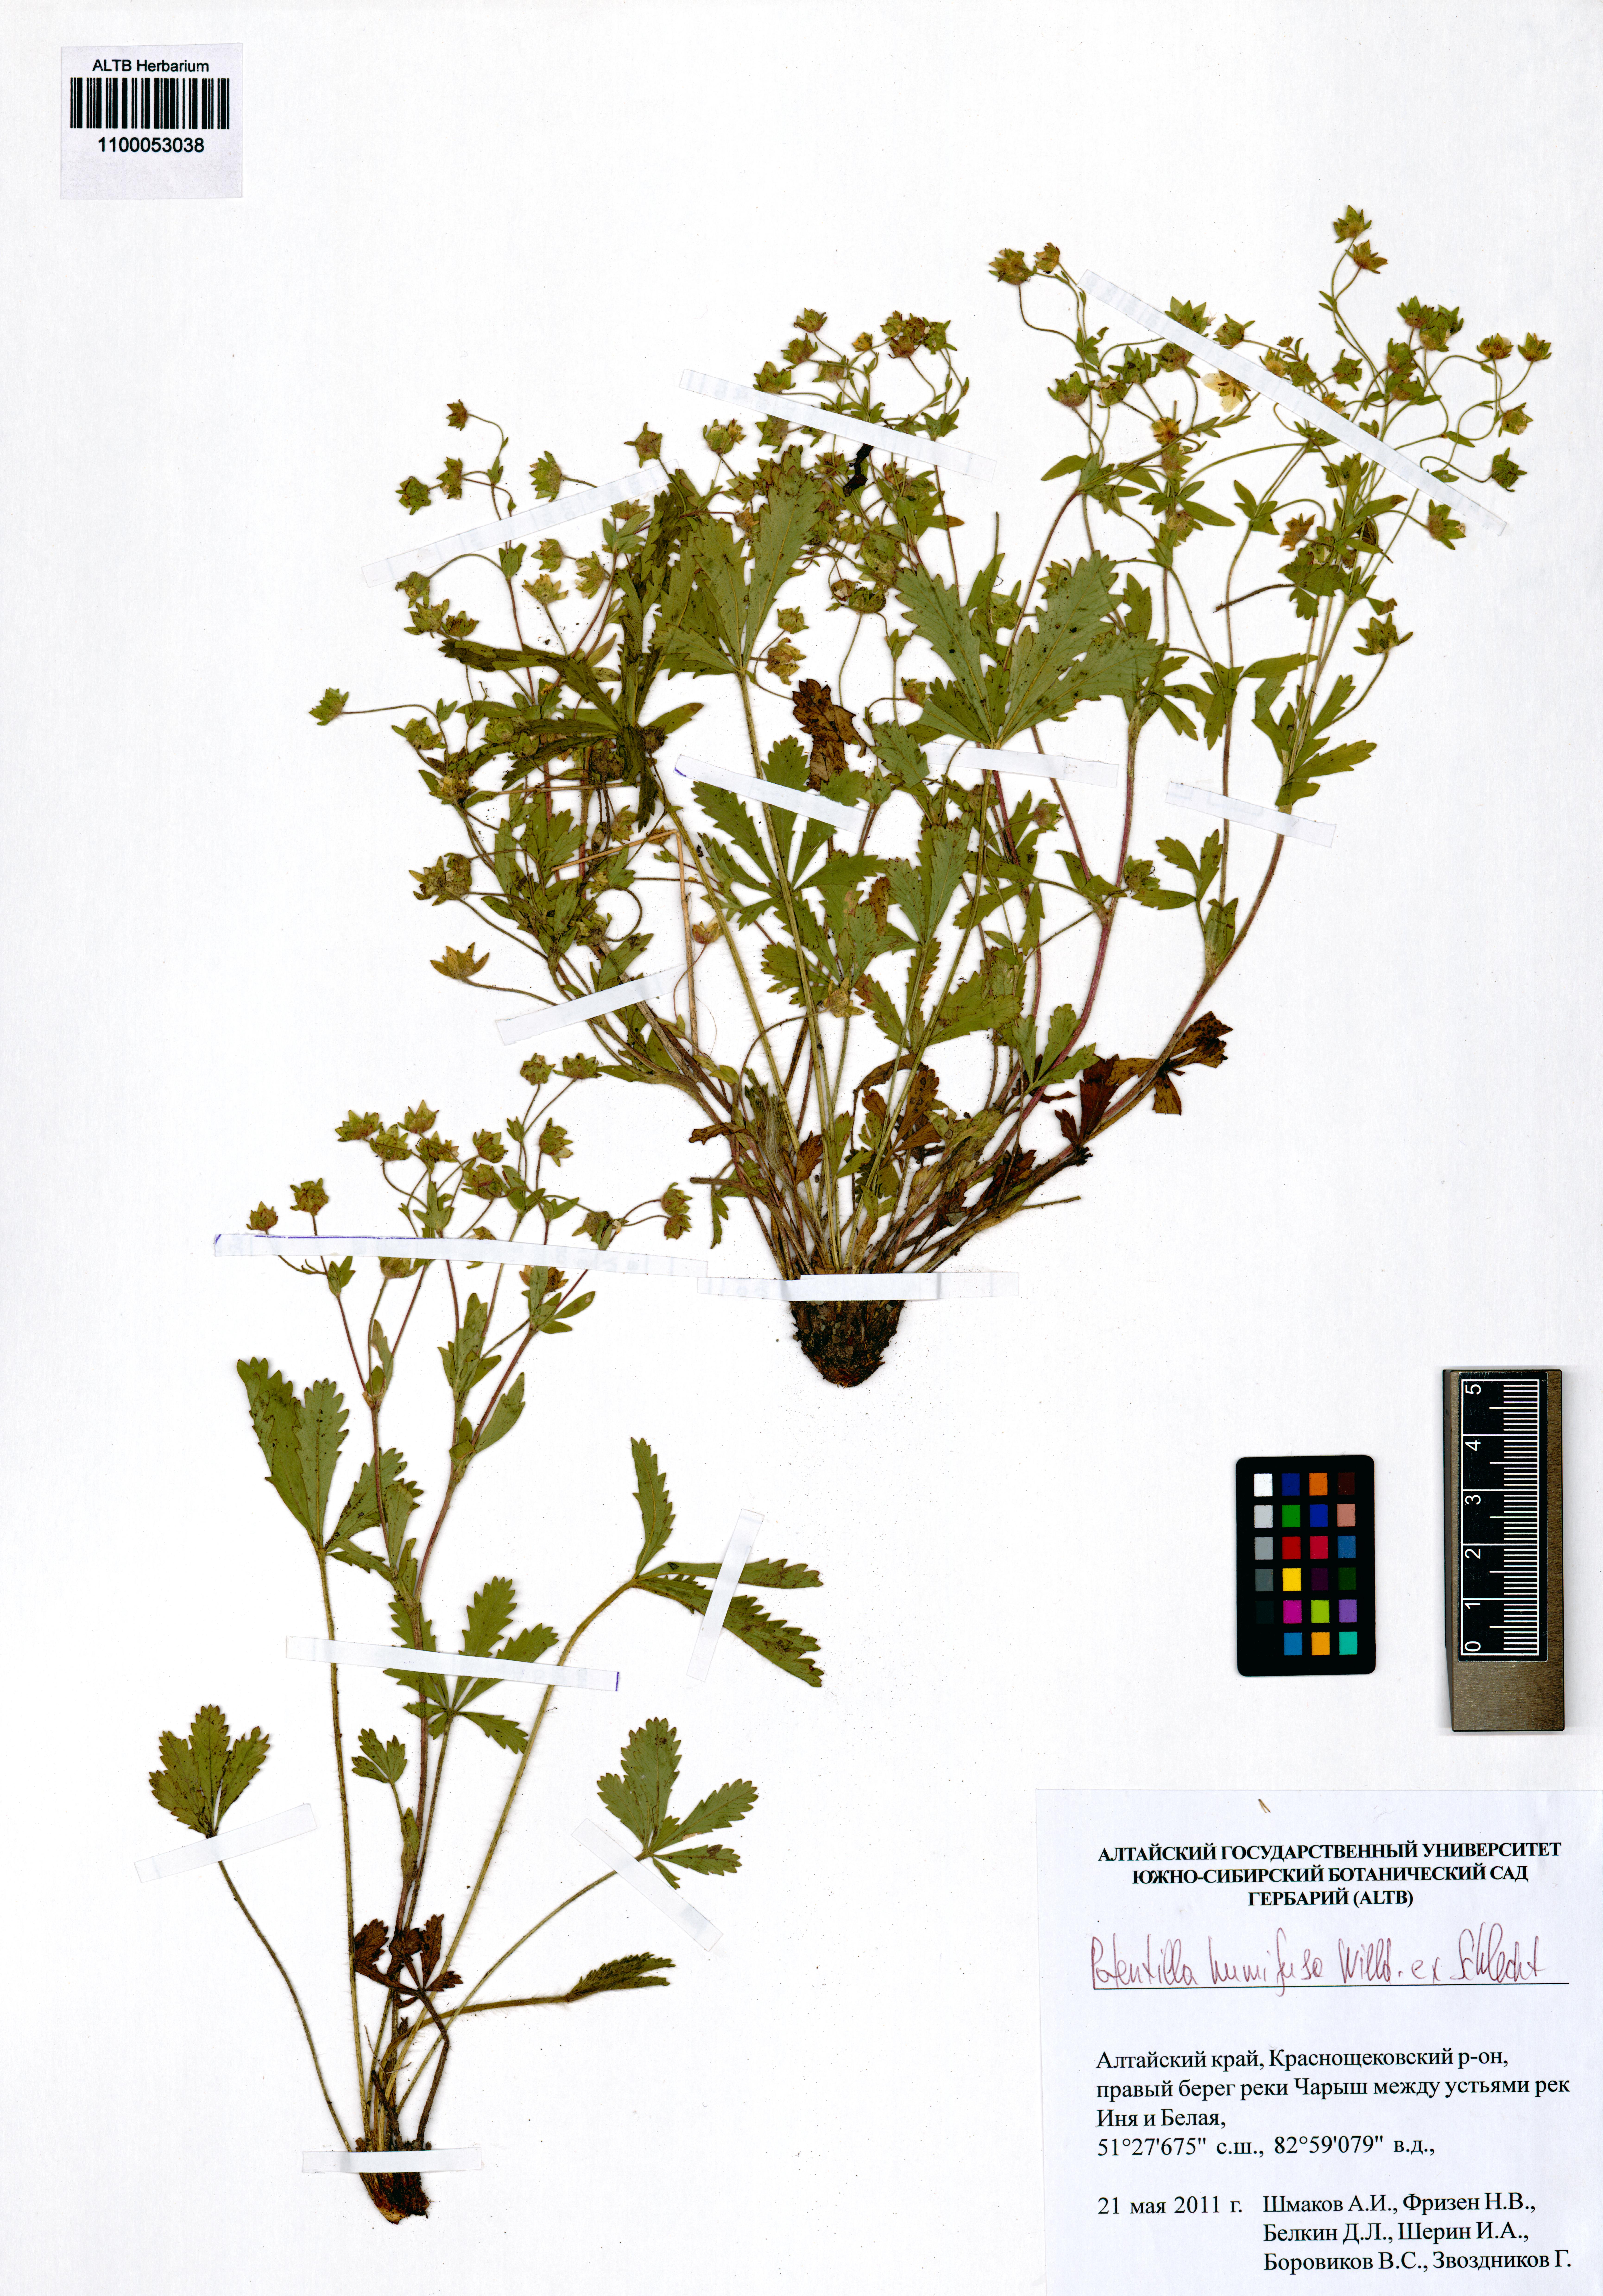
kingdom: Plantae
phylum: Tracheophyta
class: Magnoliopsida
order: Rosales
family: Rosaceae
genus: Potentilla
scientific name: Potentilla humifusa
